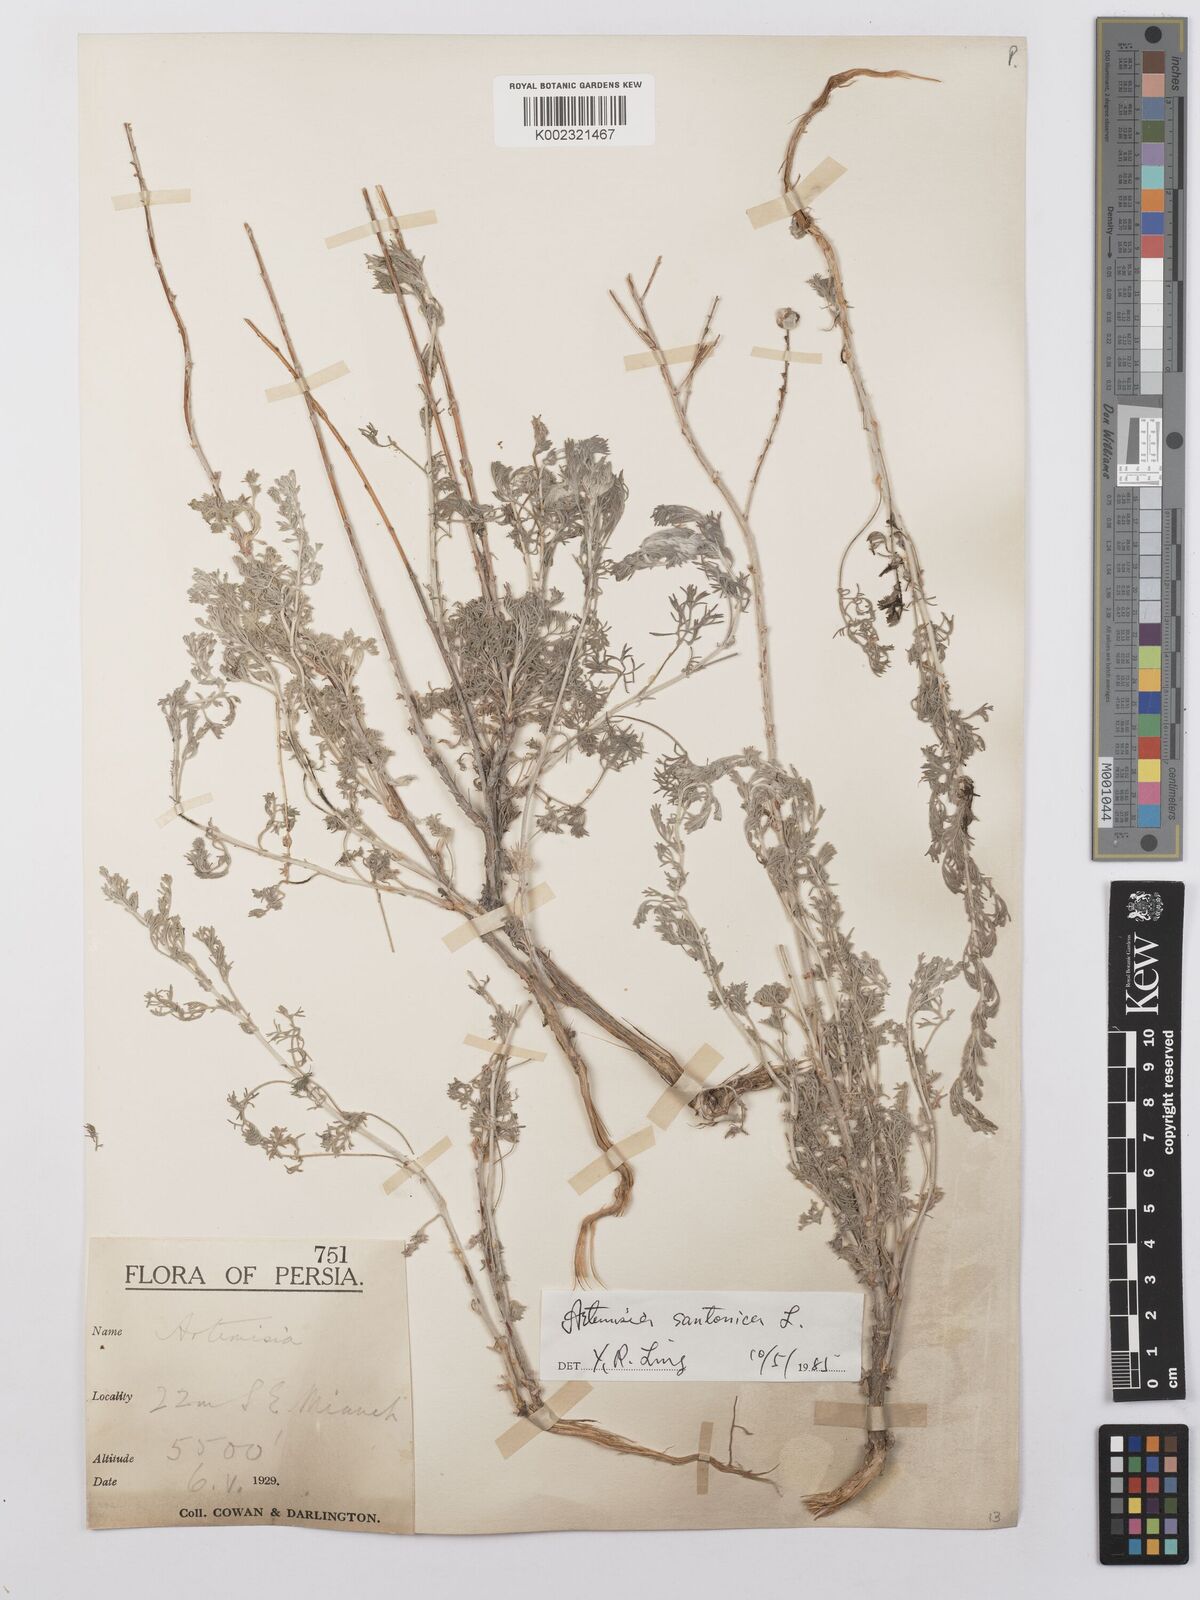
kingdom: Plantae
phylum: Tracheophyta
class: Magnoliopsida
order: Asterales
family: Asteraceae
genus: Artemisia
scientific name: Artemisia fragrans
